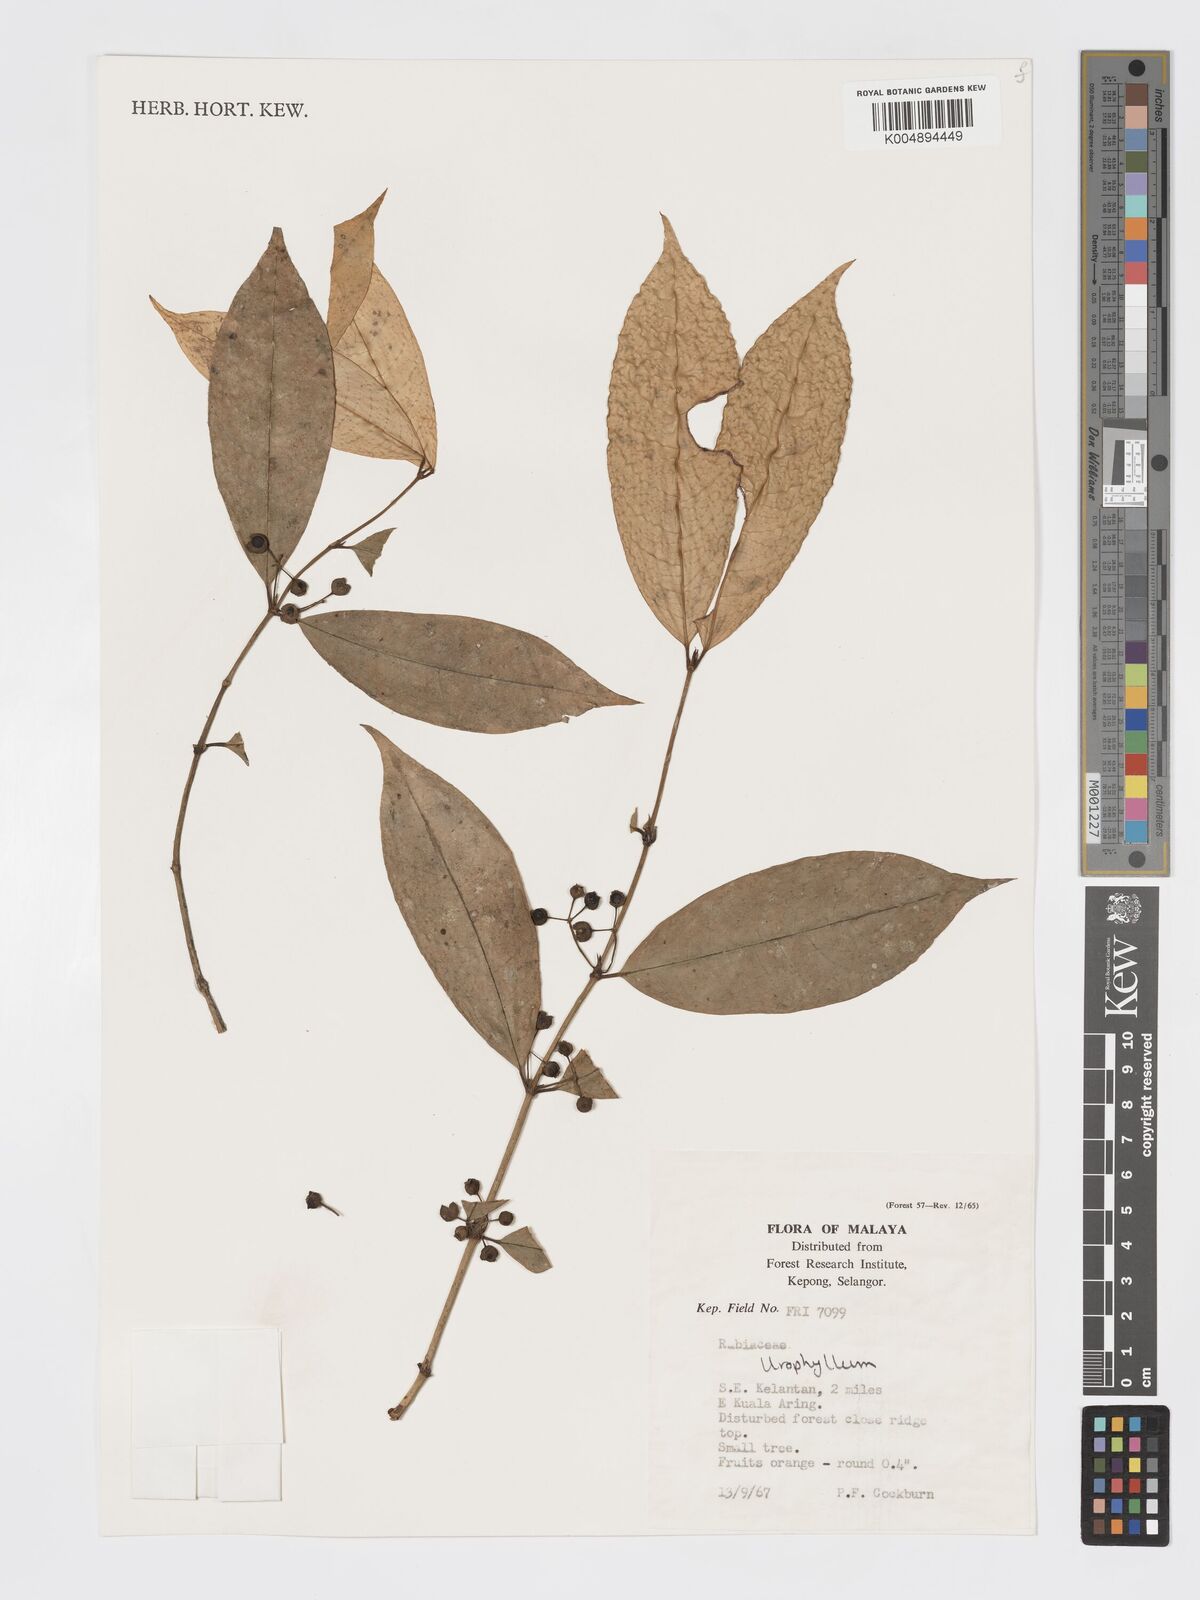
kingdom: Plantae
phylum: Tracheophyta
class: Magnoliopsida
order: Gentianales
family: Rubiaceae
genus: Urophyllum
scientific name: Urophyllum griffithianum
